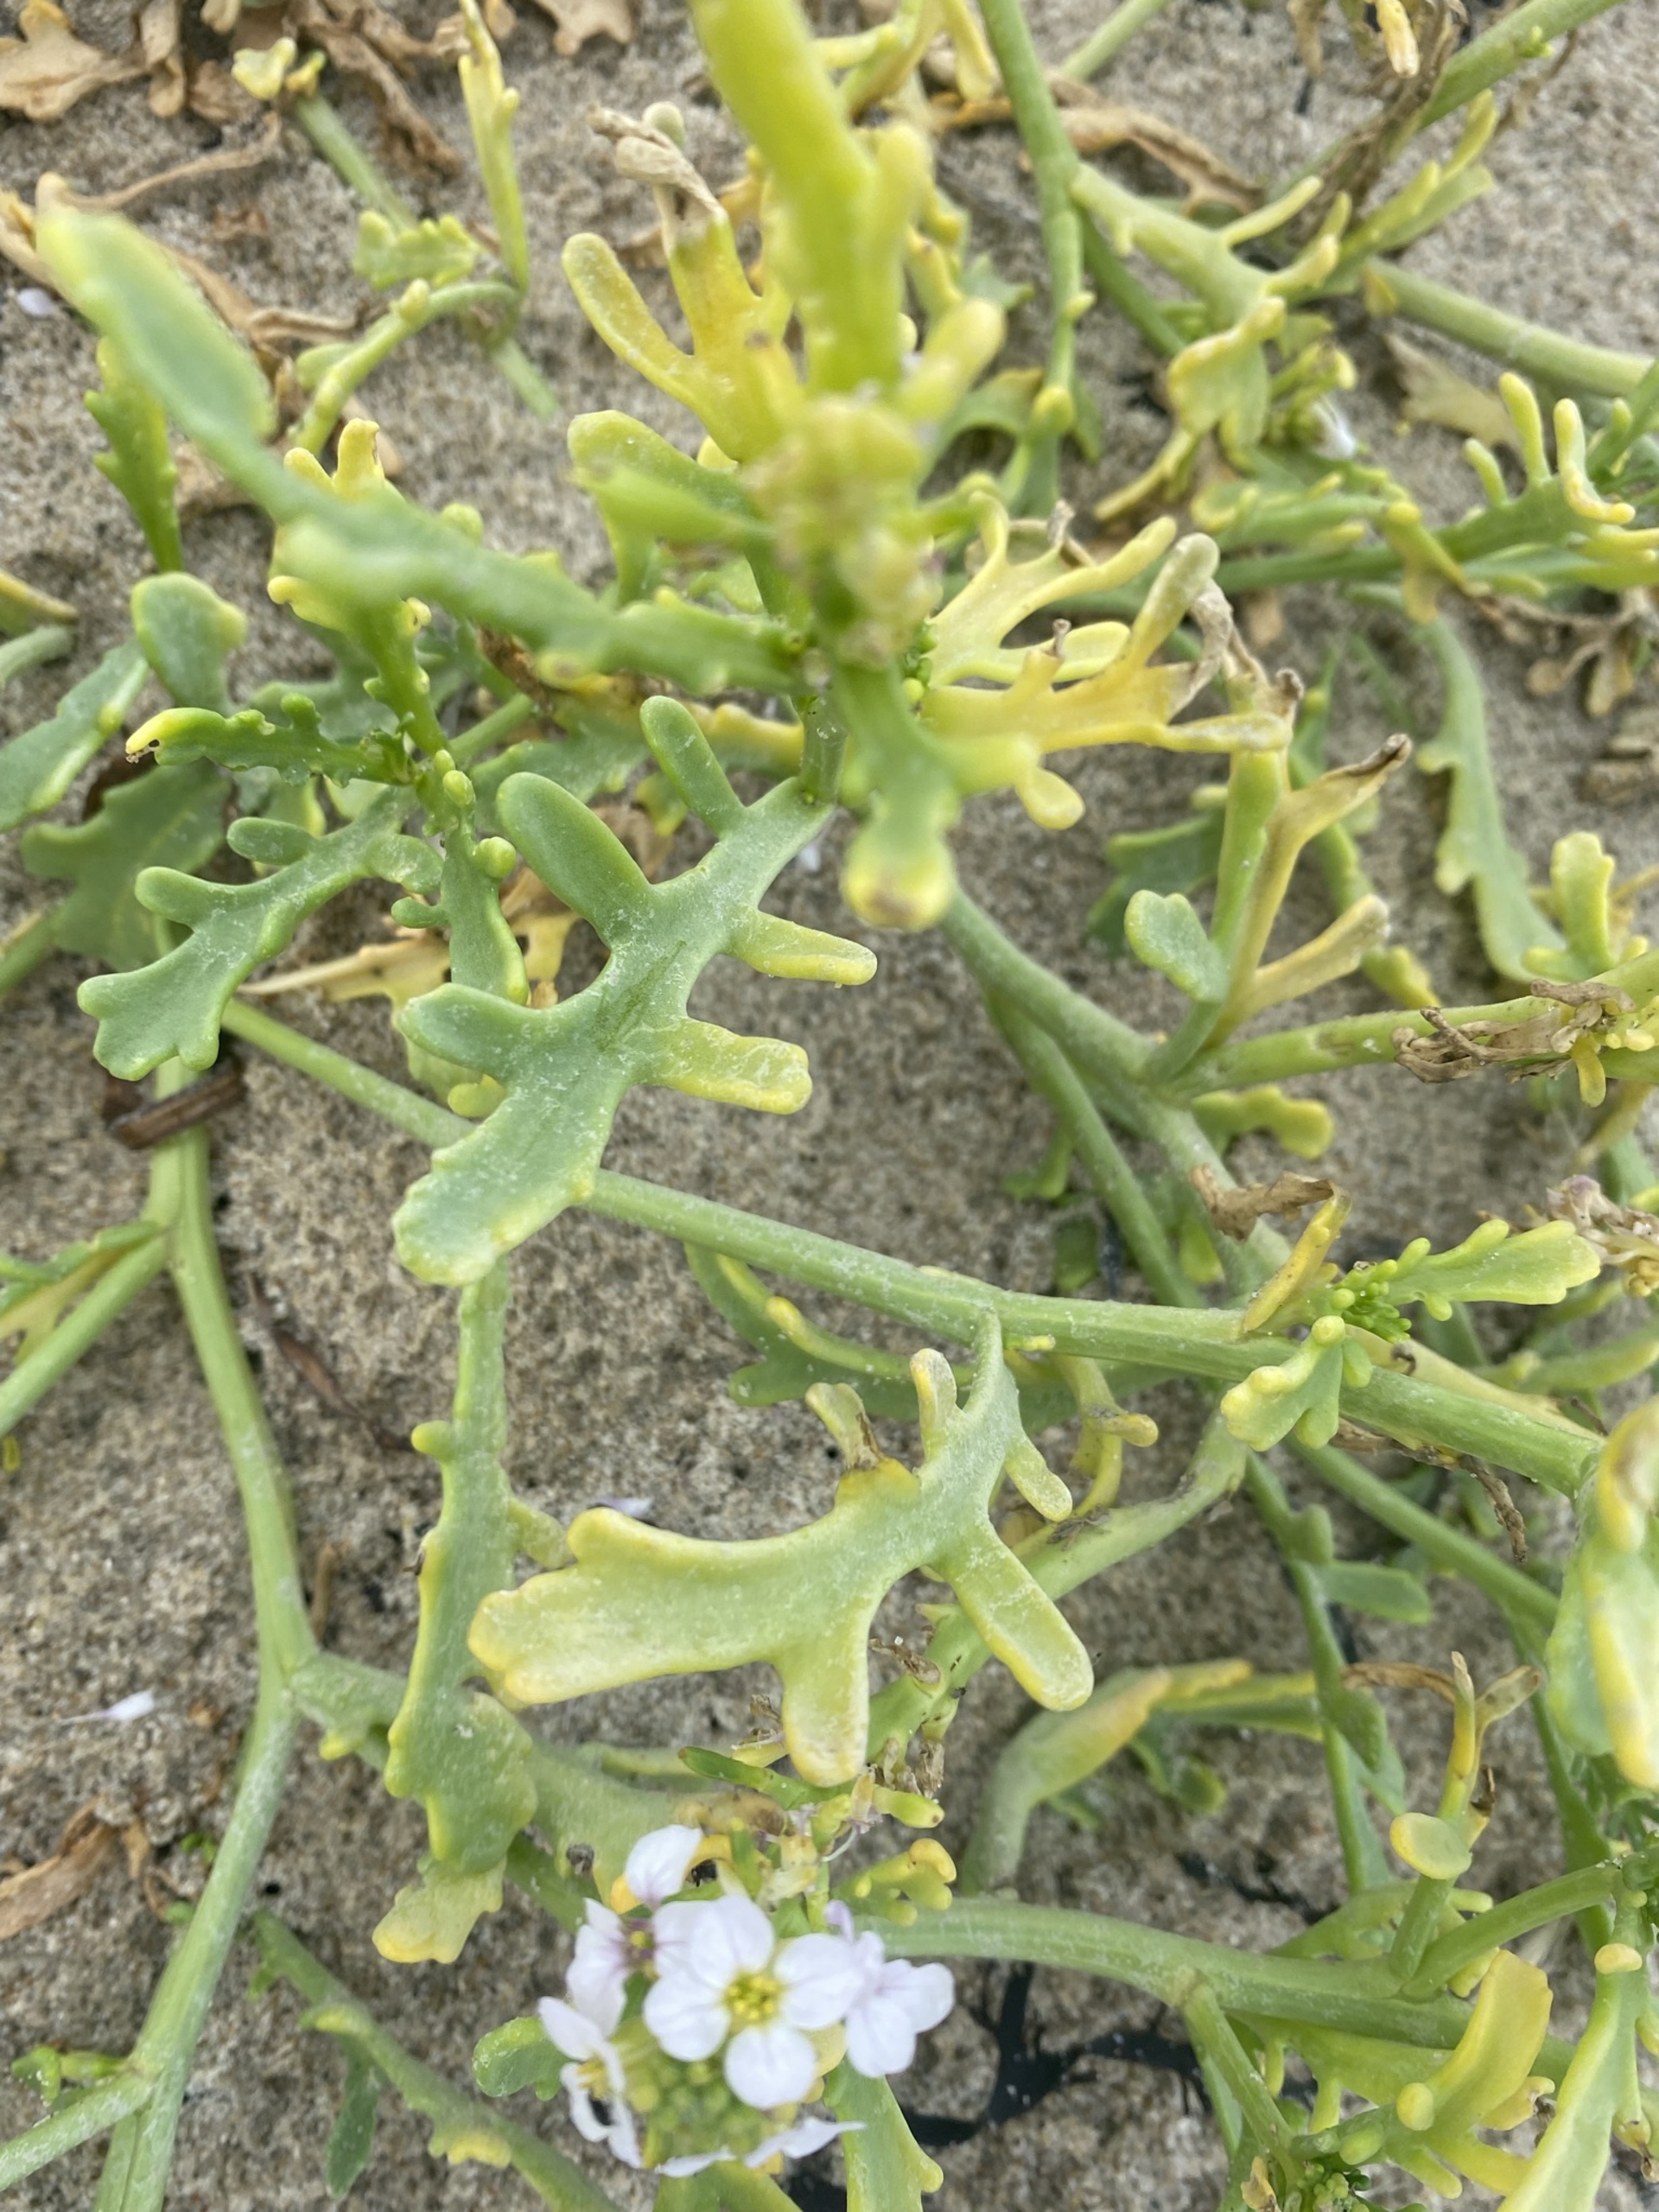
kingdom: Plantae
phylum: Tracheophyta
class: Magnoliopsida
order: Brassicales
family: Brassicaceae
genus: Cakile
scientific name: Cakile maritima
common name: Nordsø-strandsennep
